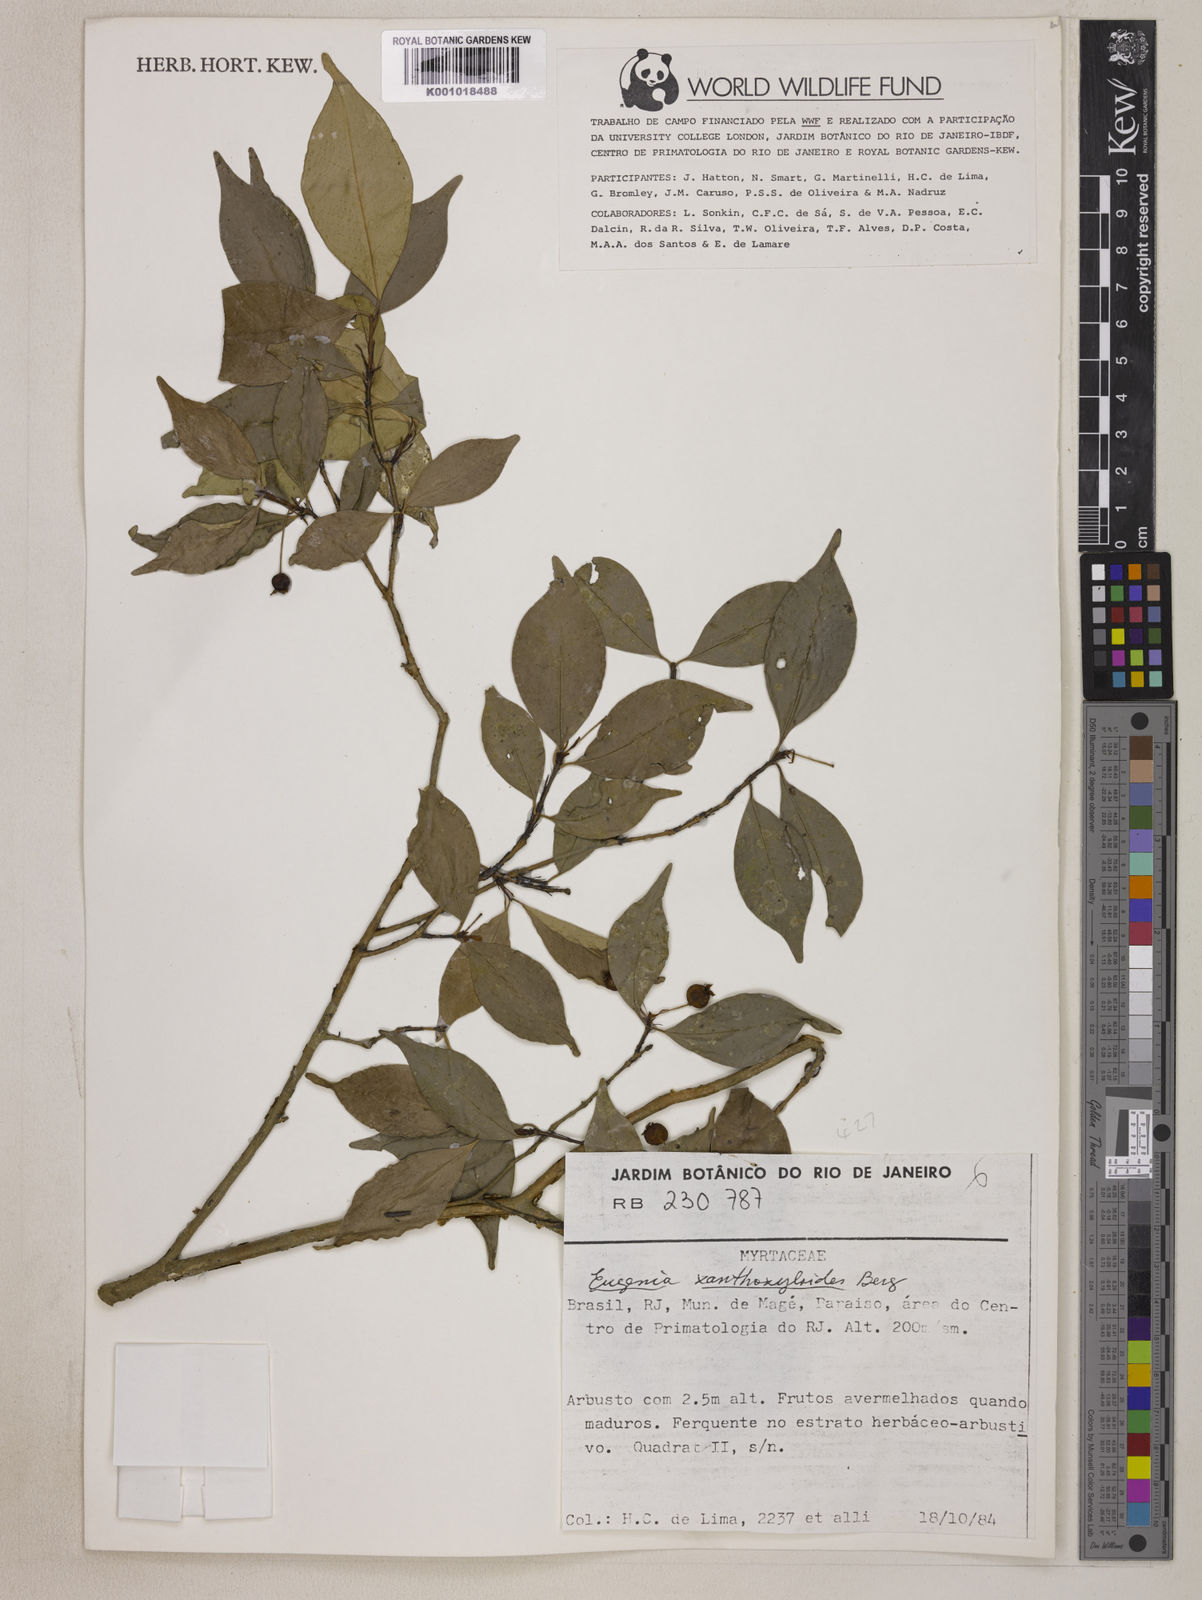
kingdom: Plantae
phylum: Tracheophyta
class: Magnoliopsida
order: Myrtales
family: Myrtaceae
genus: Eugenia
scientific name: Eugenia xanthoxyloides
